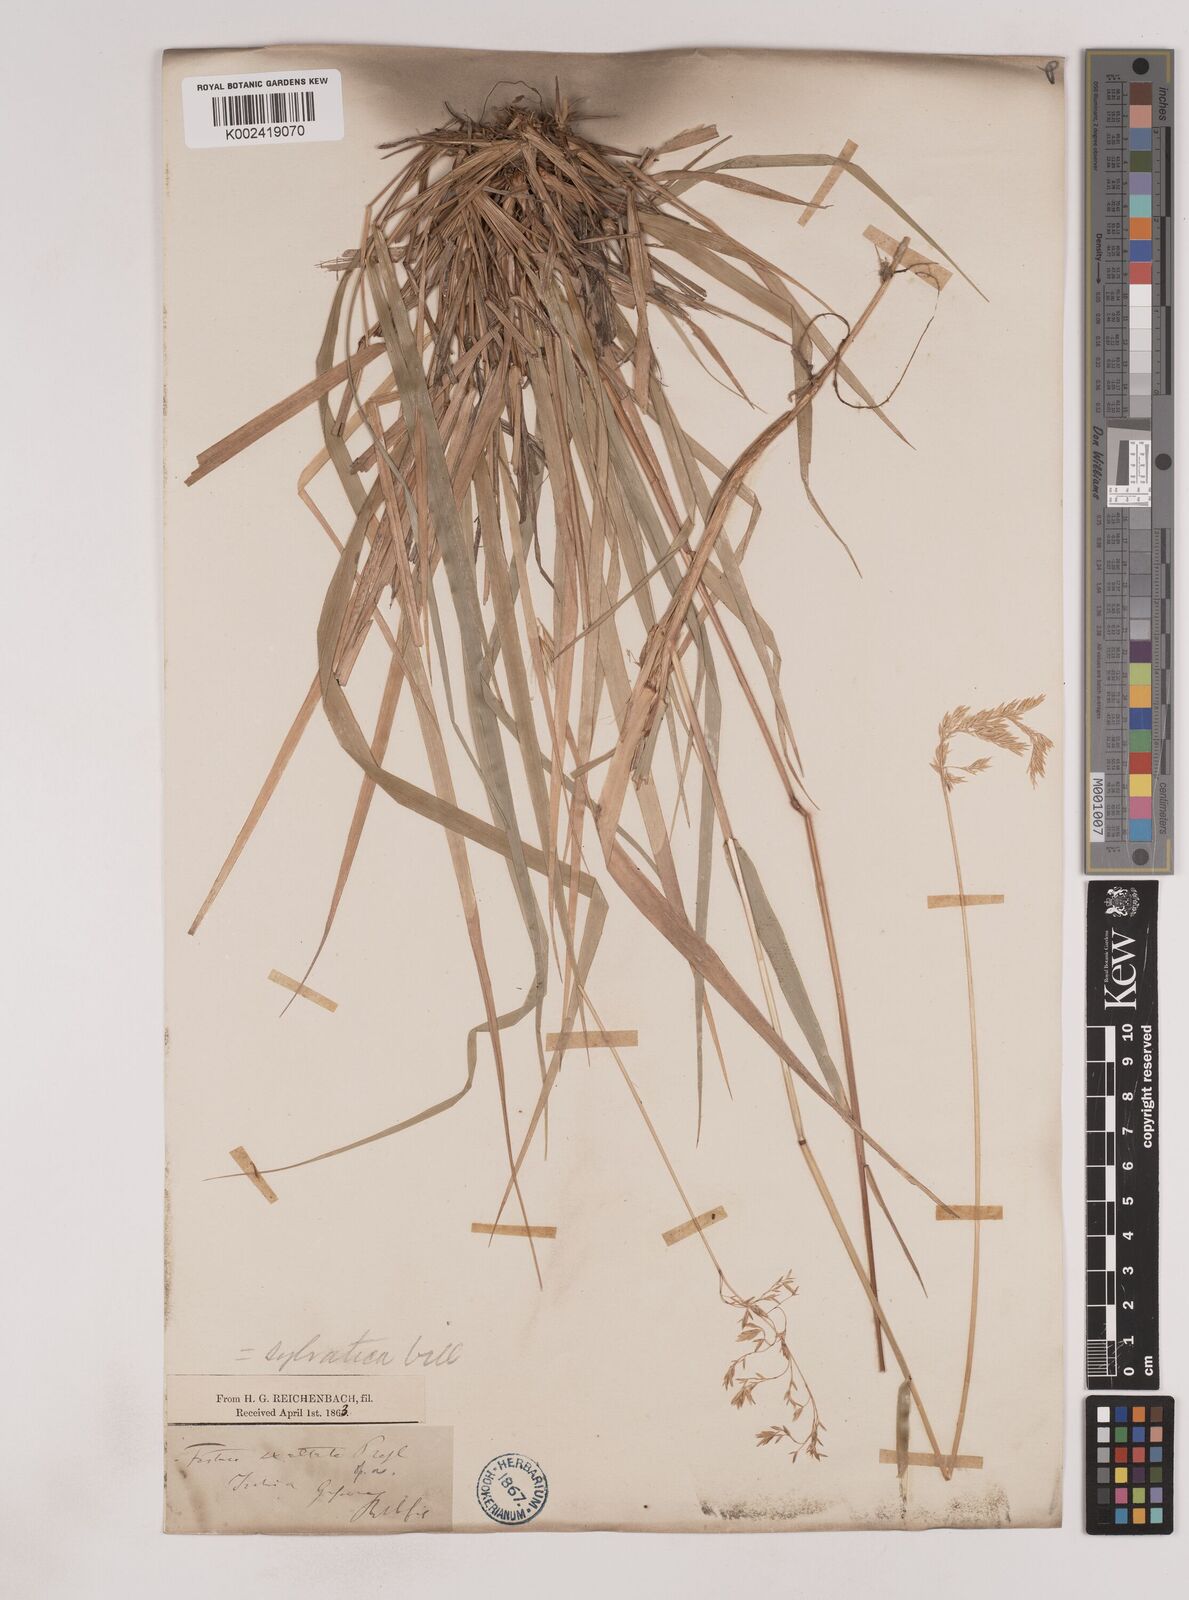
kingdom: Plantae
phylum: Tracheophyta
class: Liliopsida
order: Poales
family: Poaceae
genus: Festuca
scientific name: Festuca drymeja
